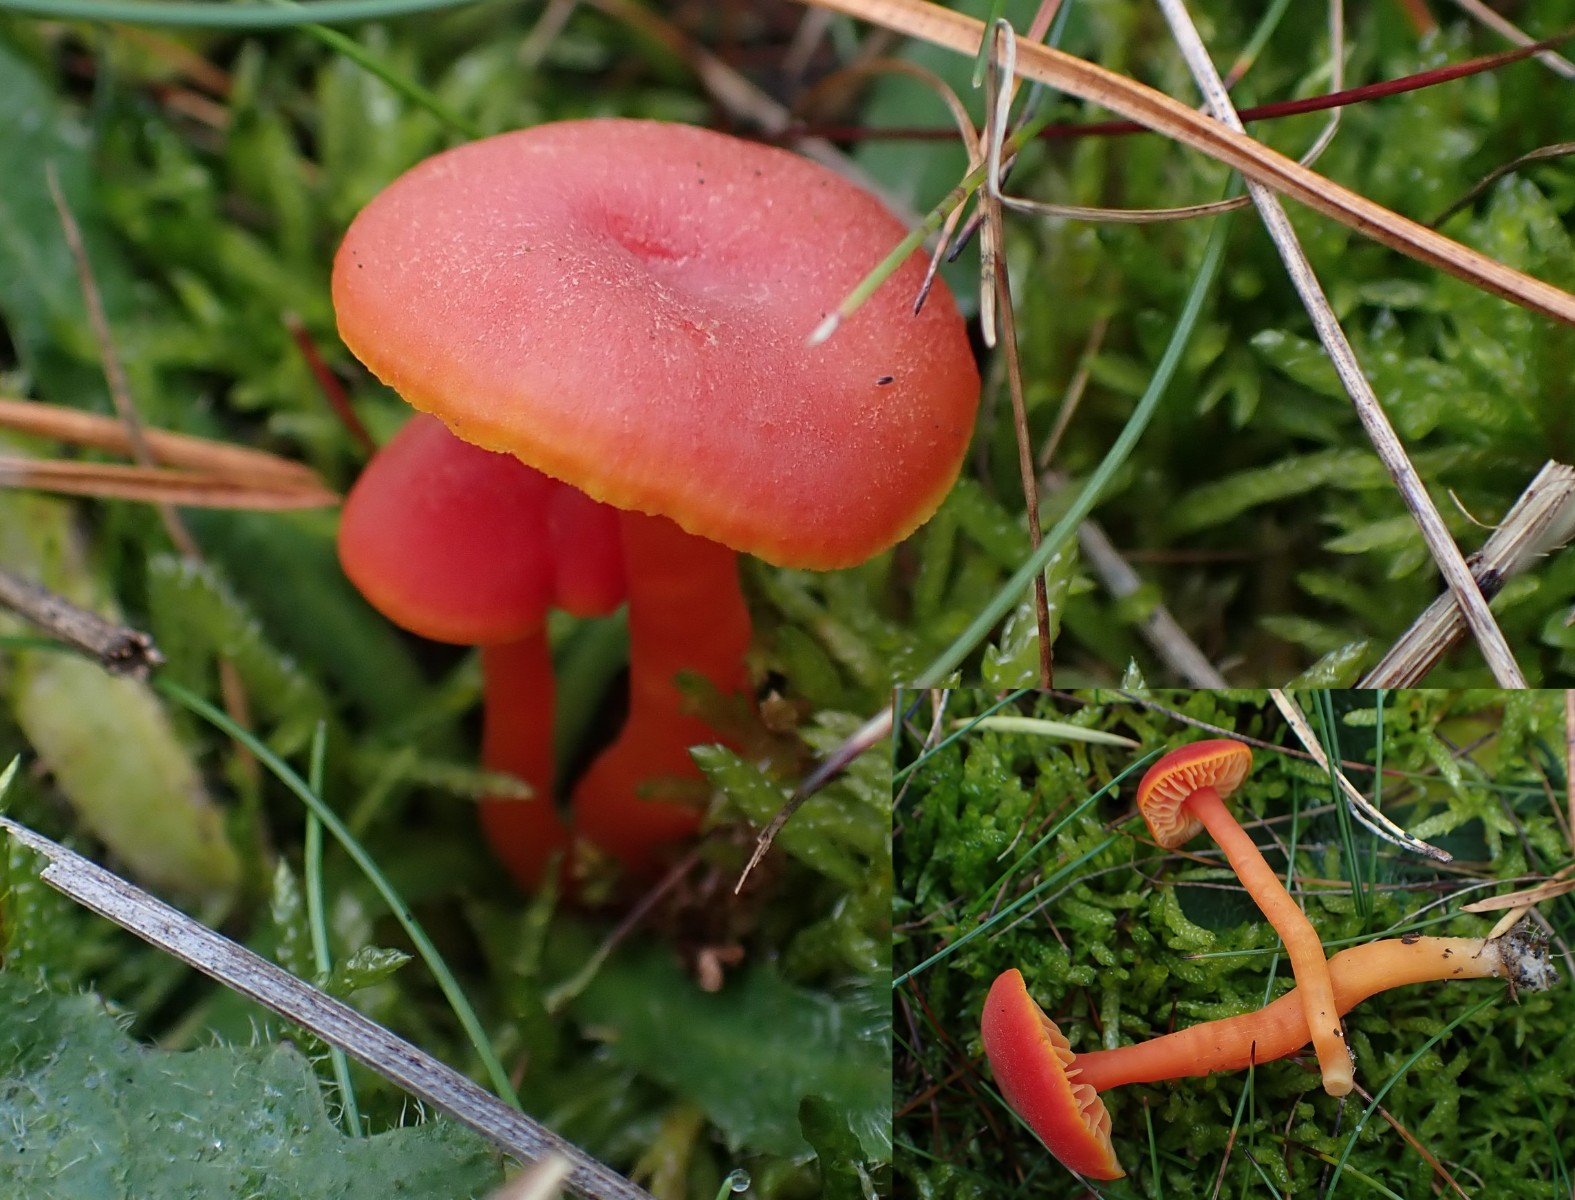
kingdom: Fungi
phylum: Basidiomycota
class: Agaricomycetes
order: Agaricales
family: Hygrophoraceae
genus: Hygrocybe
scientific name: Hygrocybe miniata
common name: mønje-vokshat
